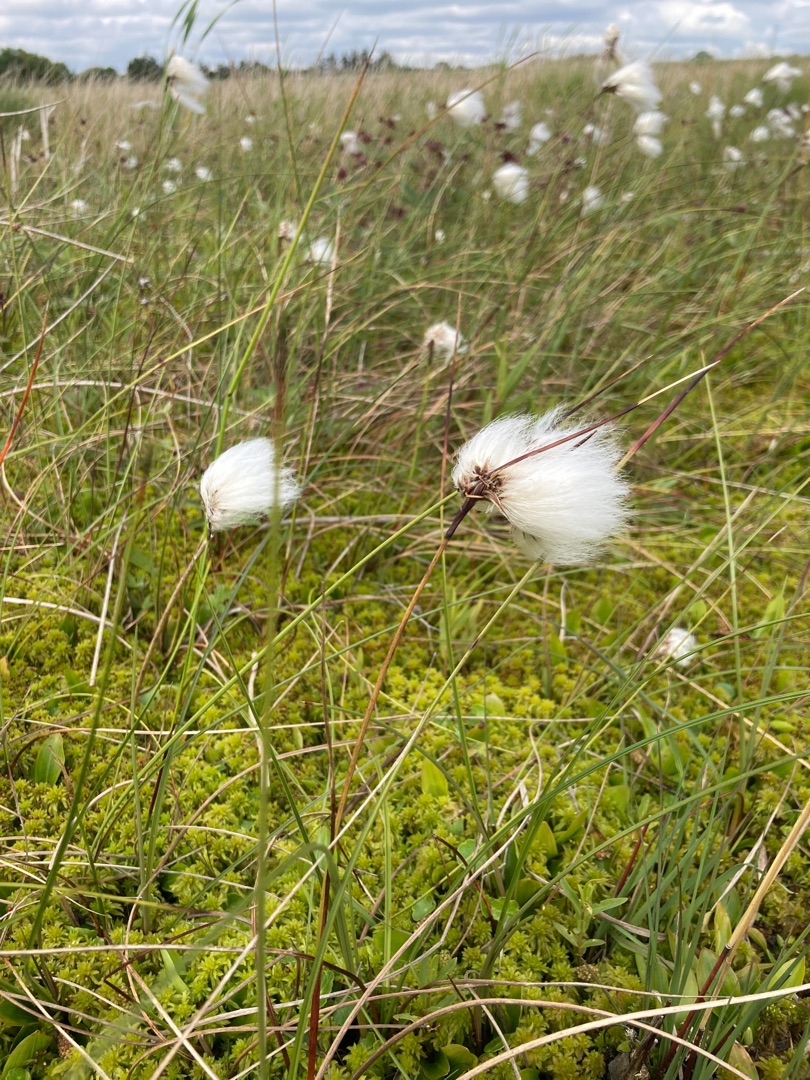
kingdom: Plantae
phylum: Tracheophyta
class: Liliopsida
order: Poales
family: Cyperaceae
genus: Eriophorum
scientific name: Eriophorum angustifolium
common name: Smalbladet kæruld
